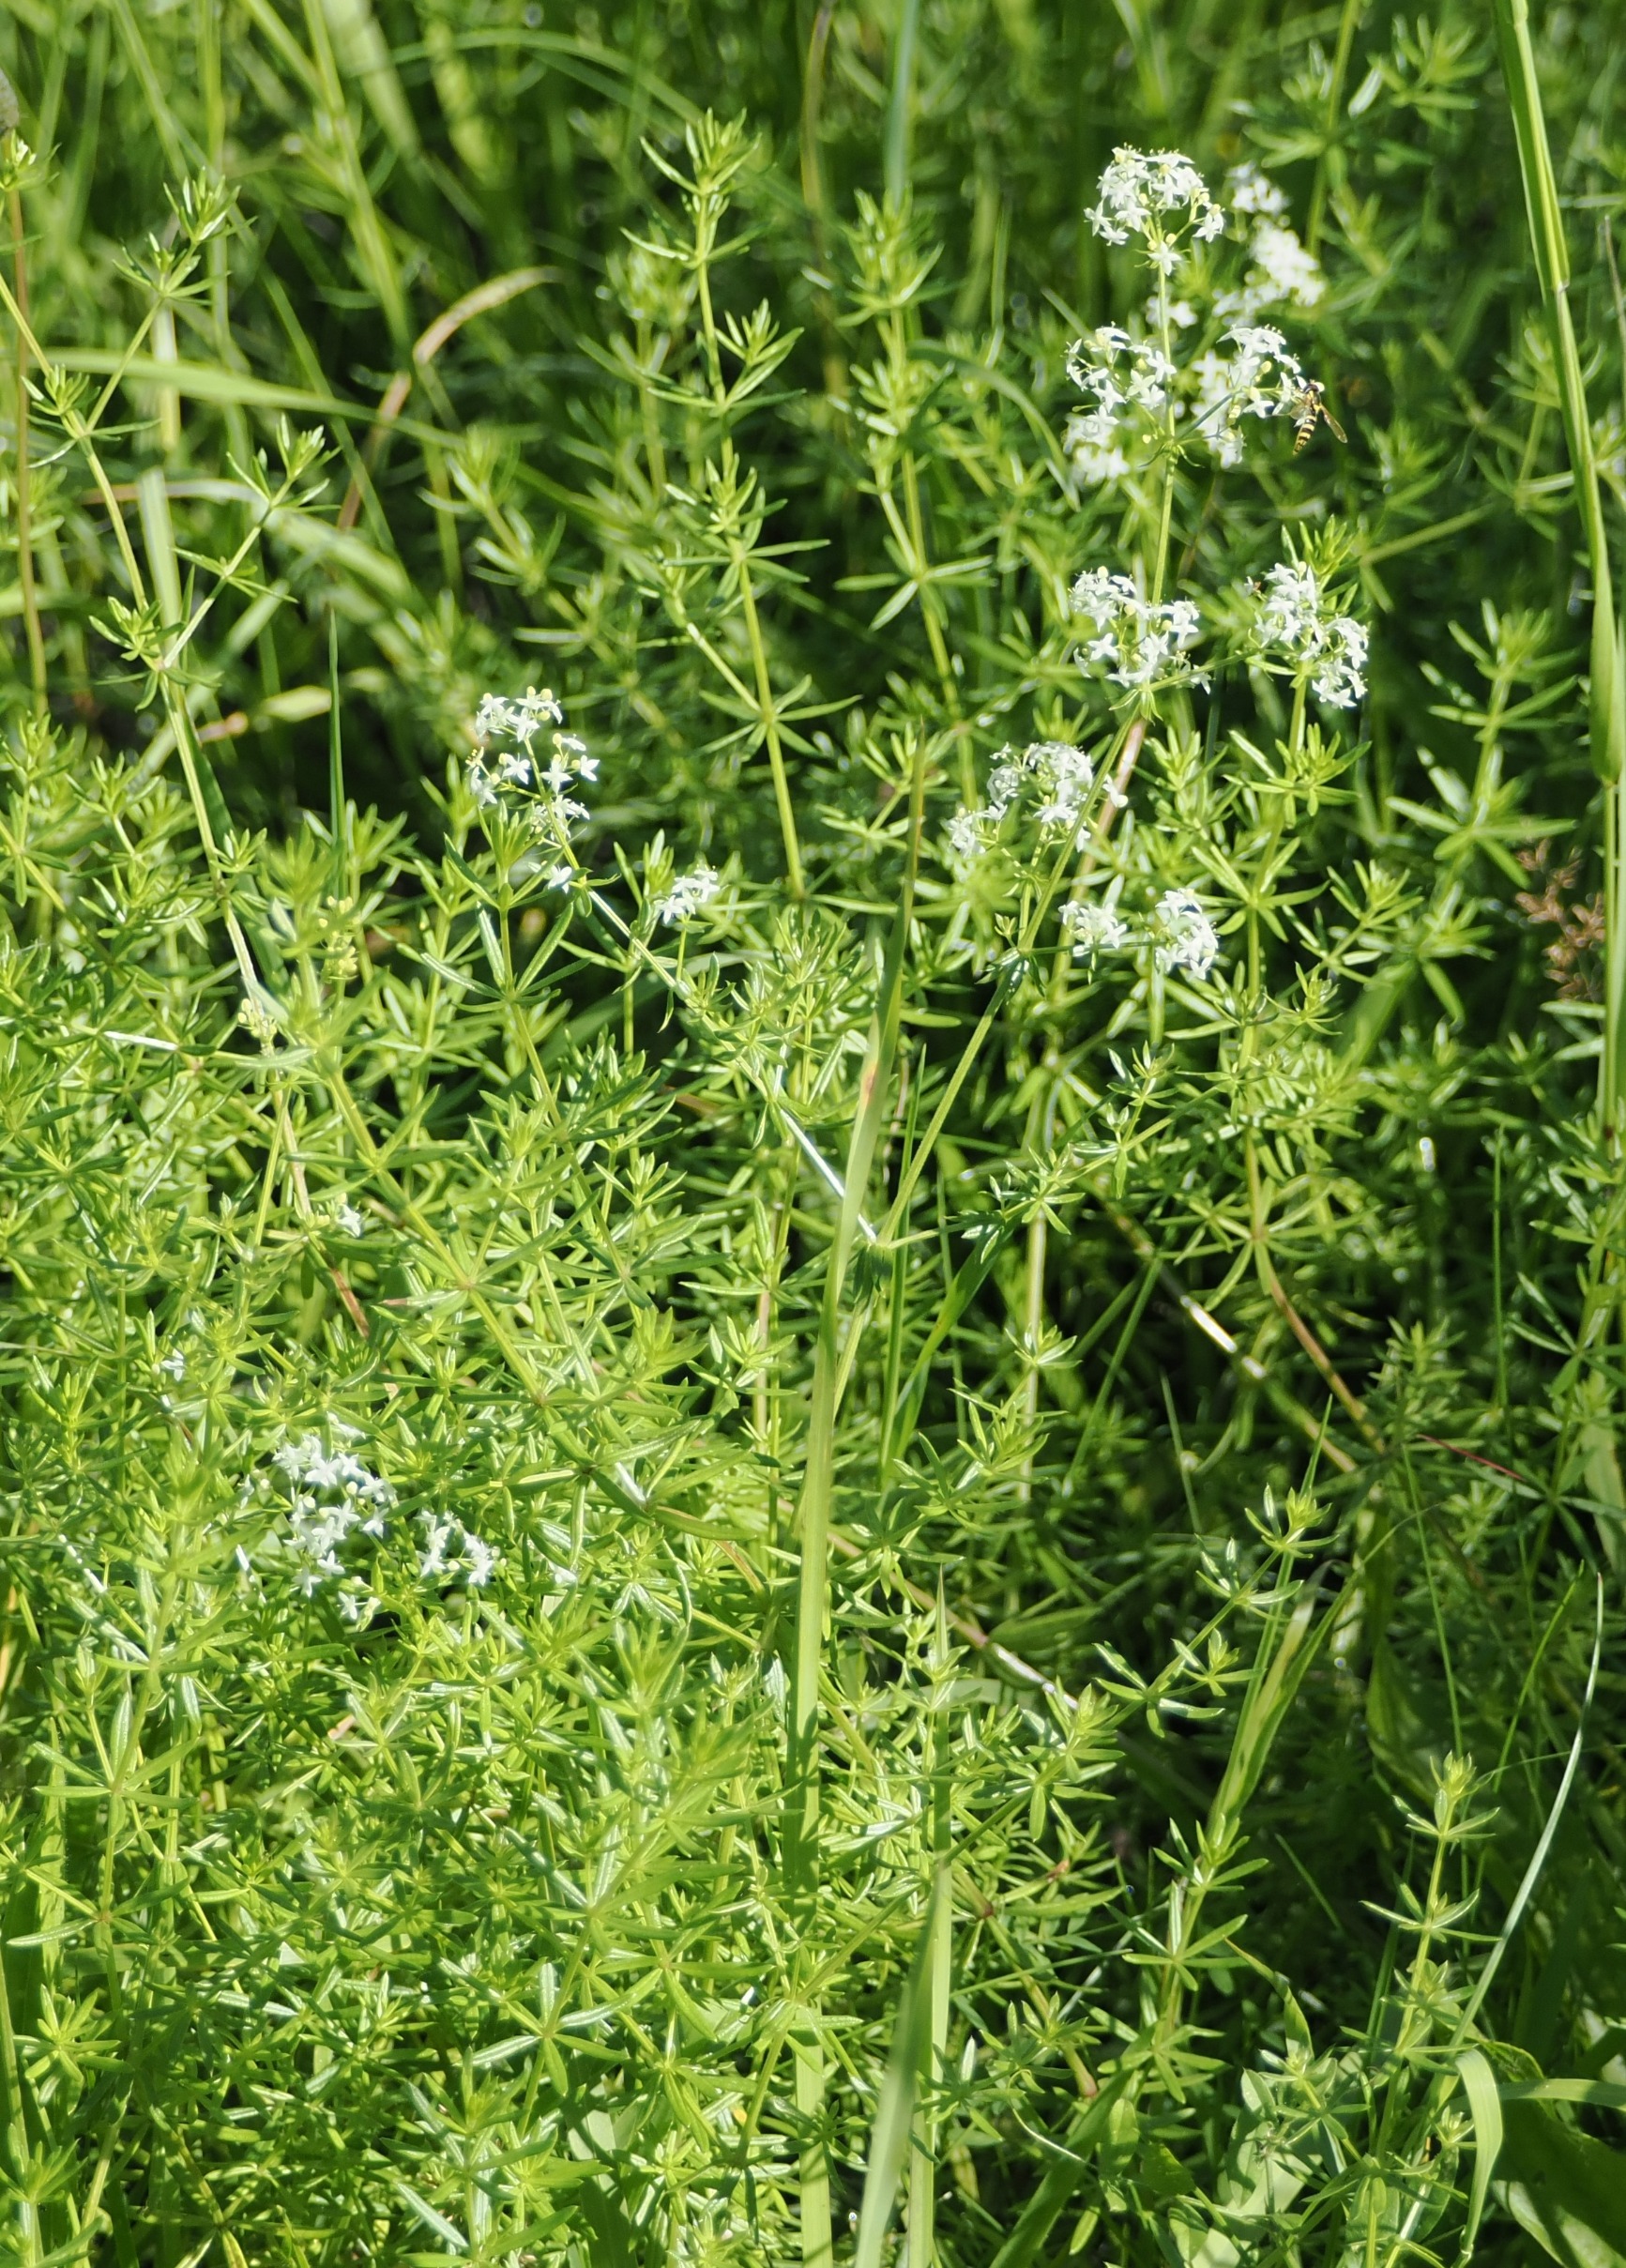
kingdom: Plantae
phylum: Tracheophyta
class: Magnoliopsida
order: Gentianales
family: Rubiaceae
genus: Galium
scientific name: Galium mollugo
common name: Hvid snerre
